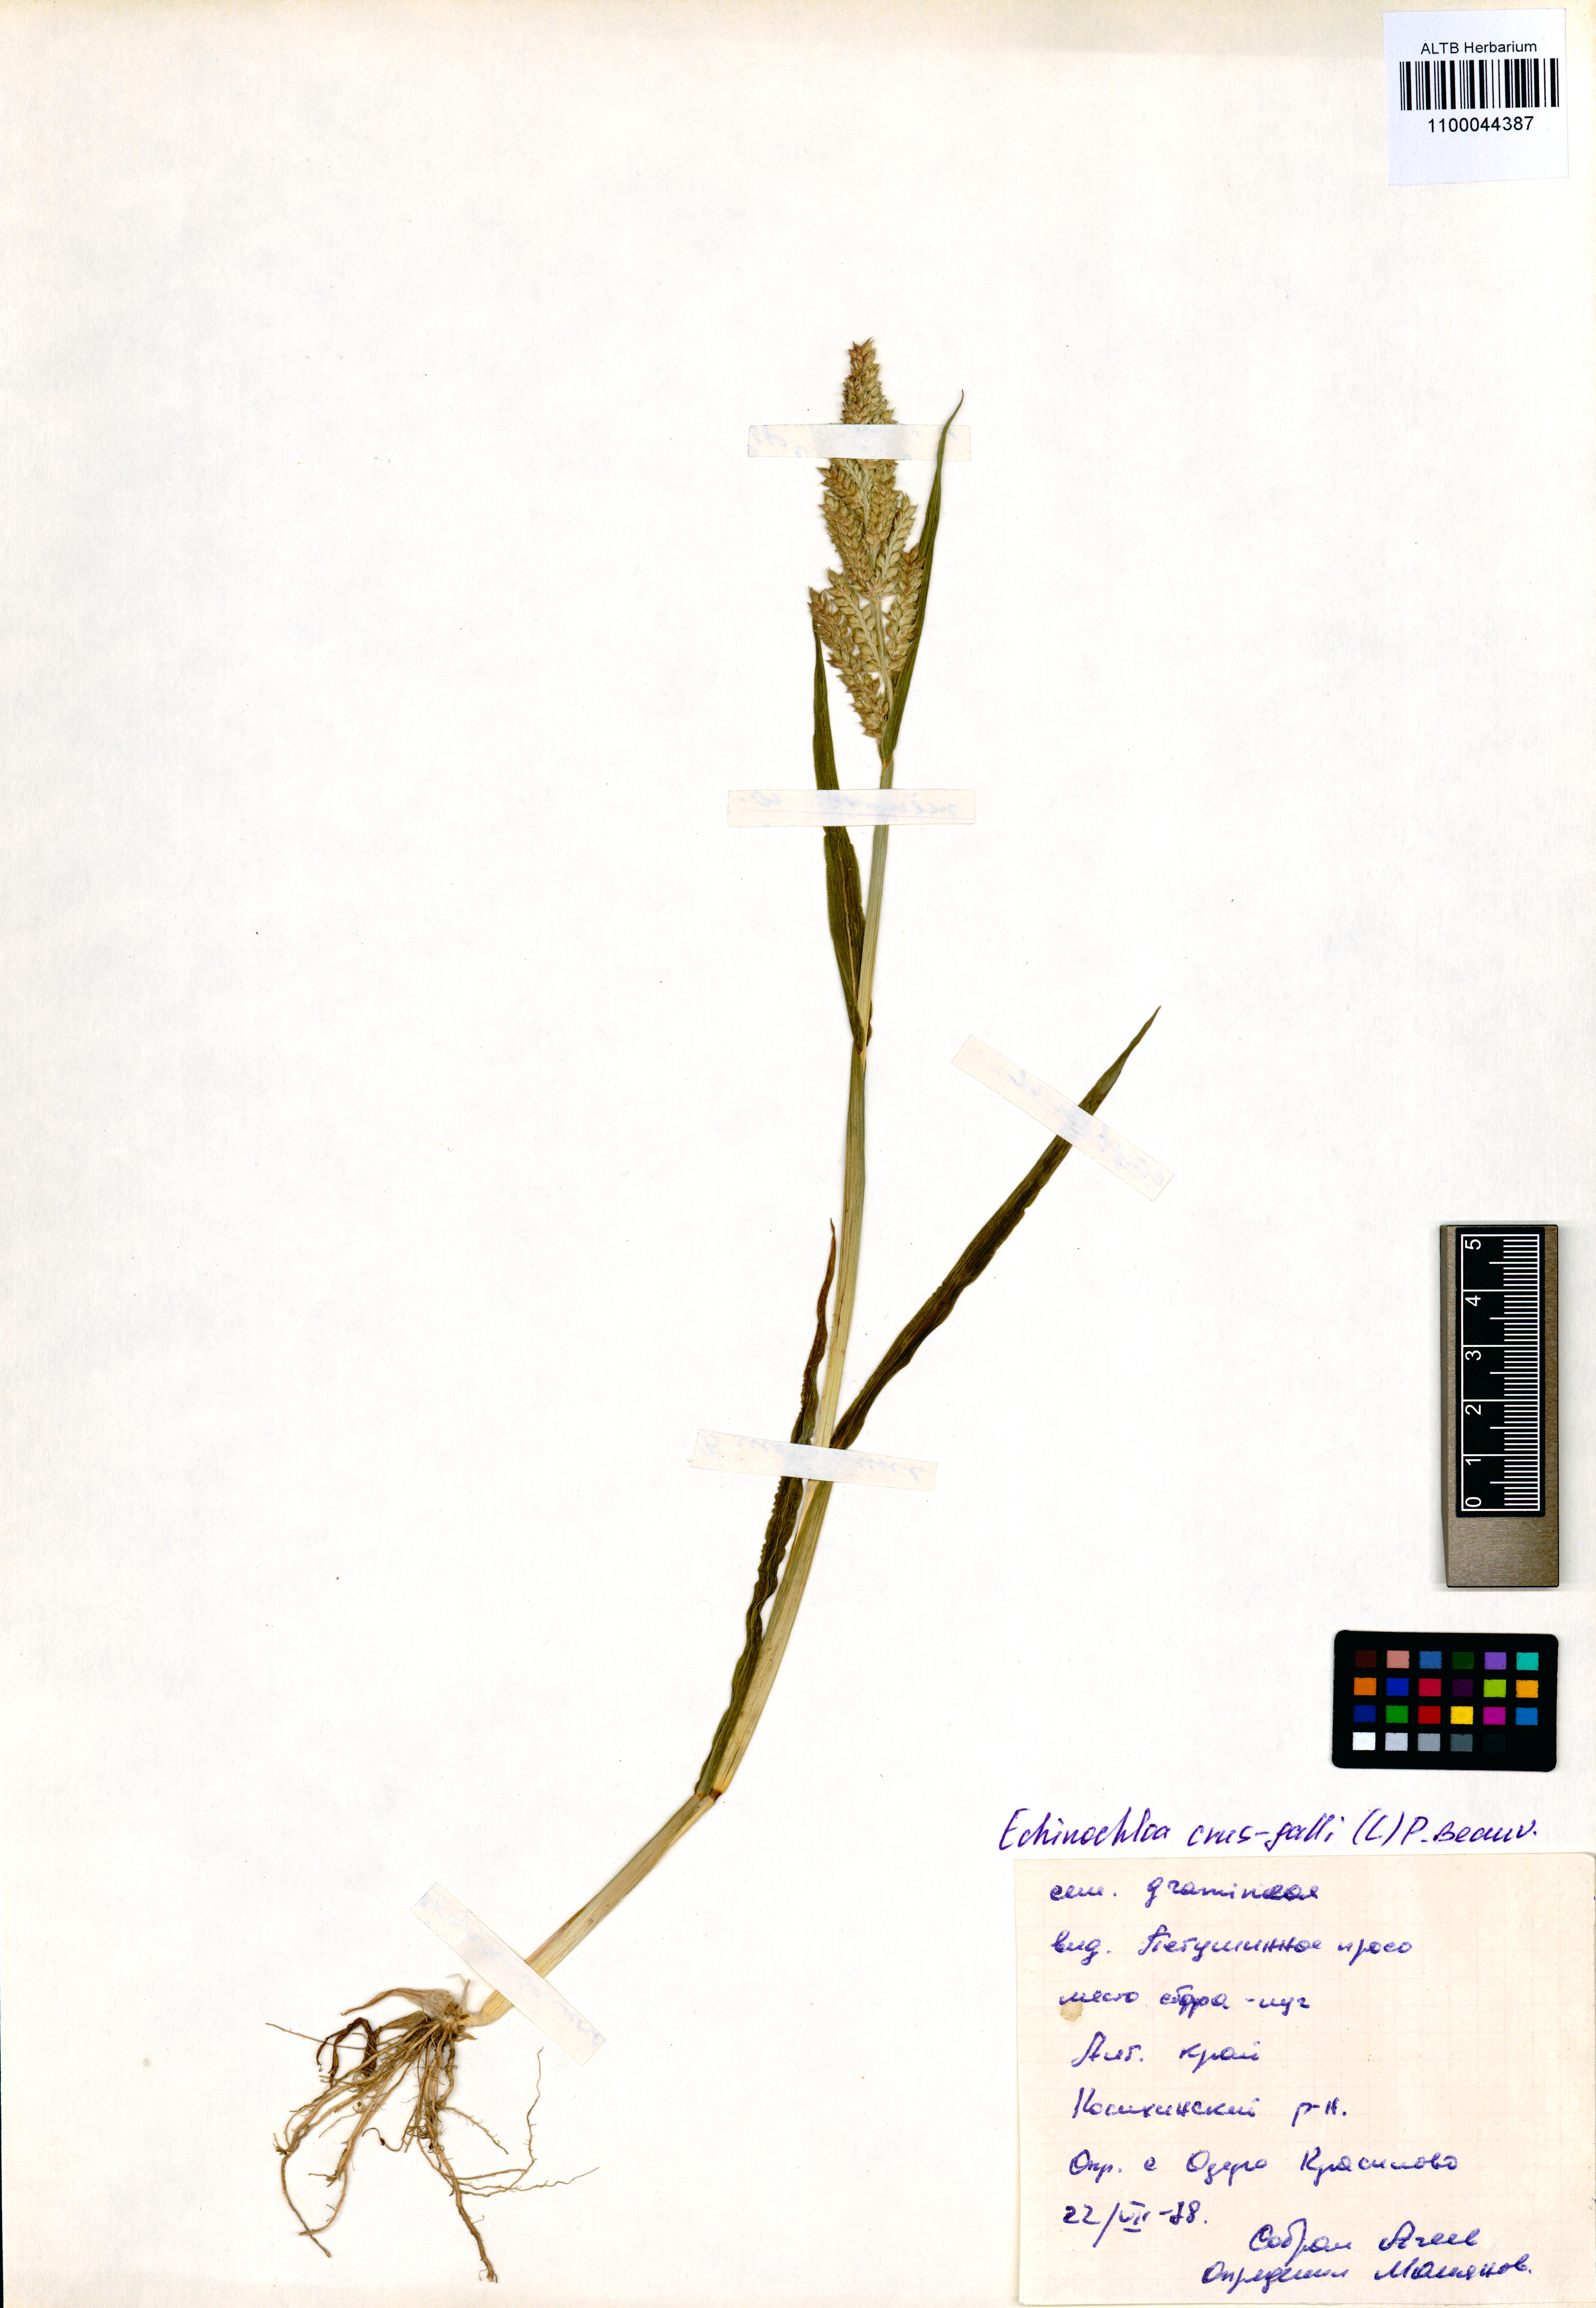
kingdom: Plantae
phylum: Tracheophyta
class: Liliopsida
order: Poales
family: Poaceae
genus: Echinochloa
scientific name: Echinochloa crus-galli
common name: Cockspur
